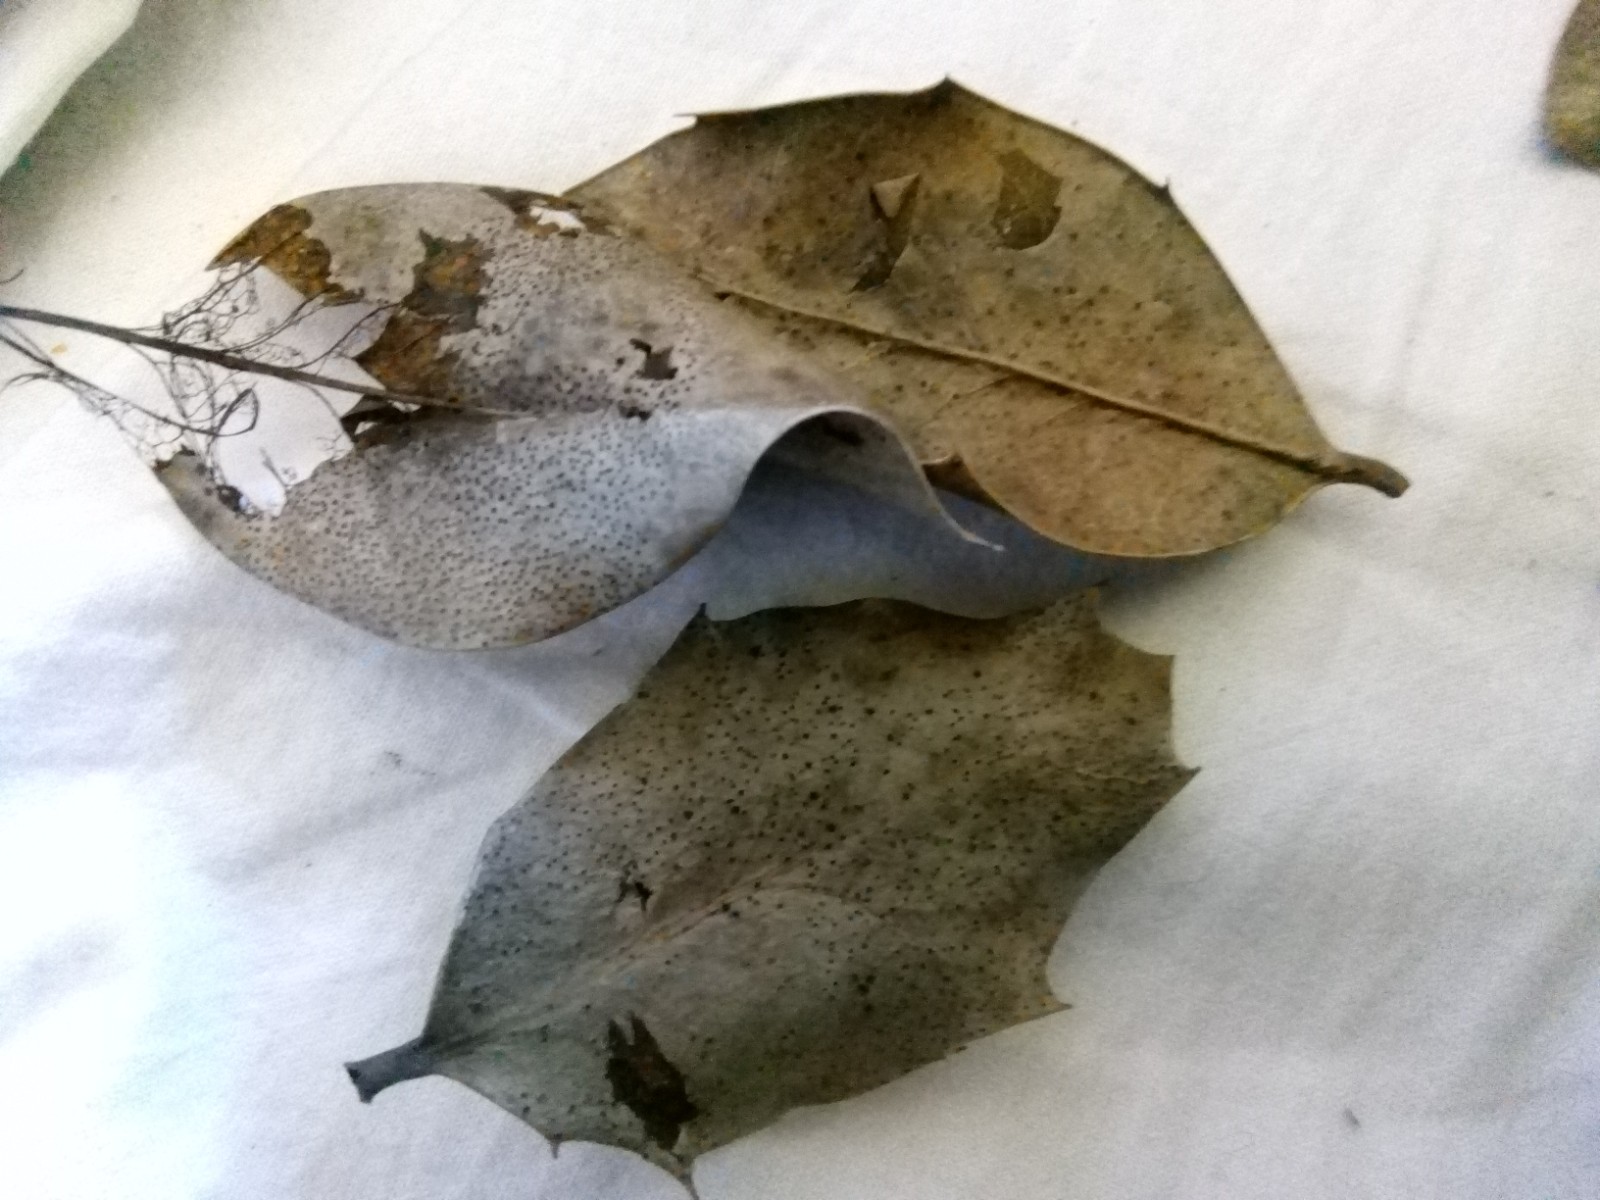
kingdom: Fungi
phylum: Ascomycota
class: Leotiomycetes
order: Phacidiales
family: Phacidiaceae
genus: Phacidium
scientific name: Phacidium lauri
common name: kristtorn-tandskive
